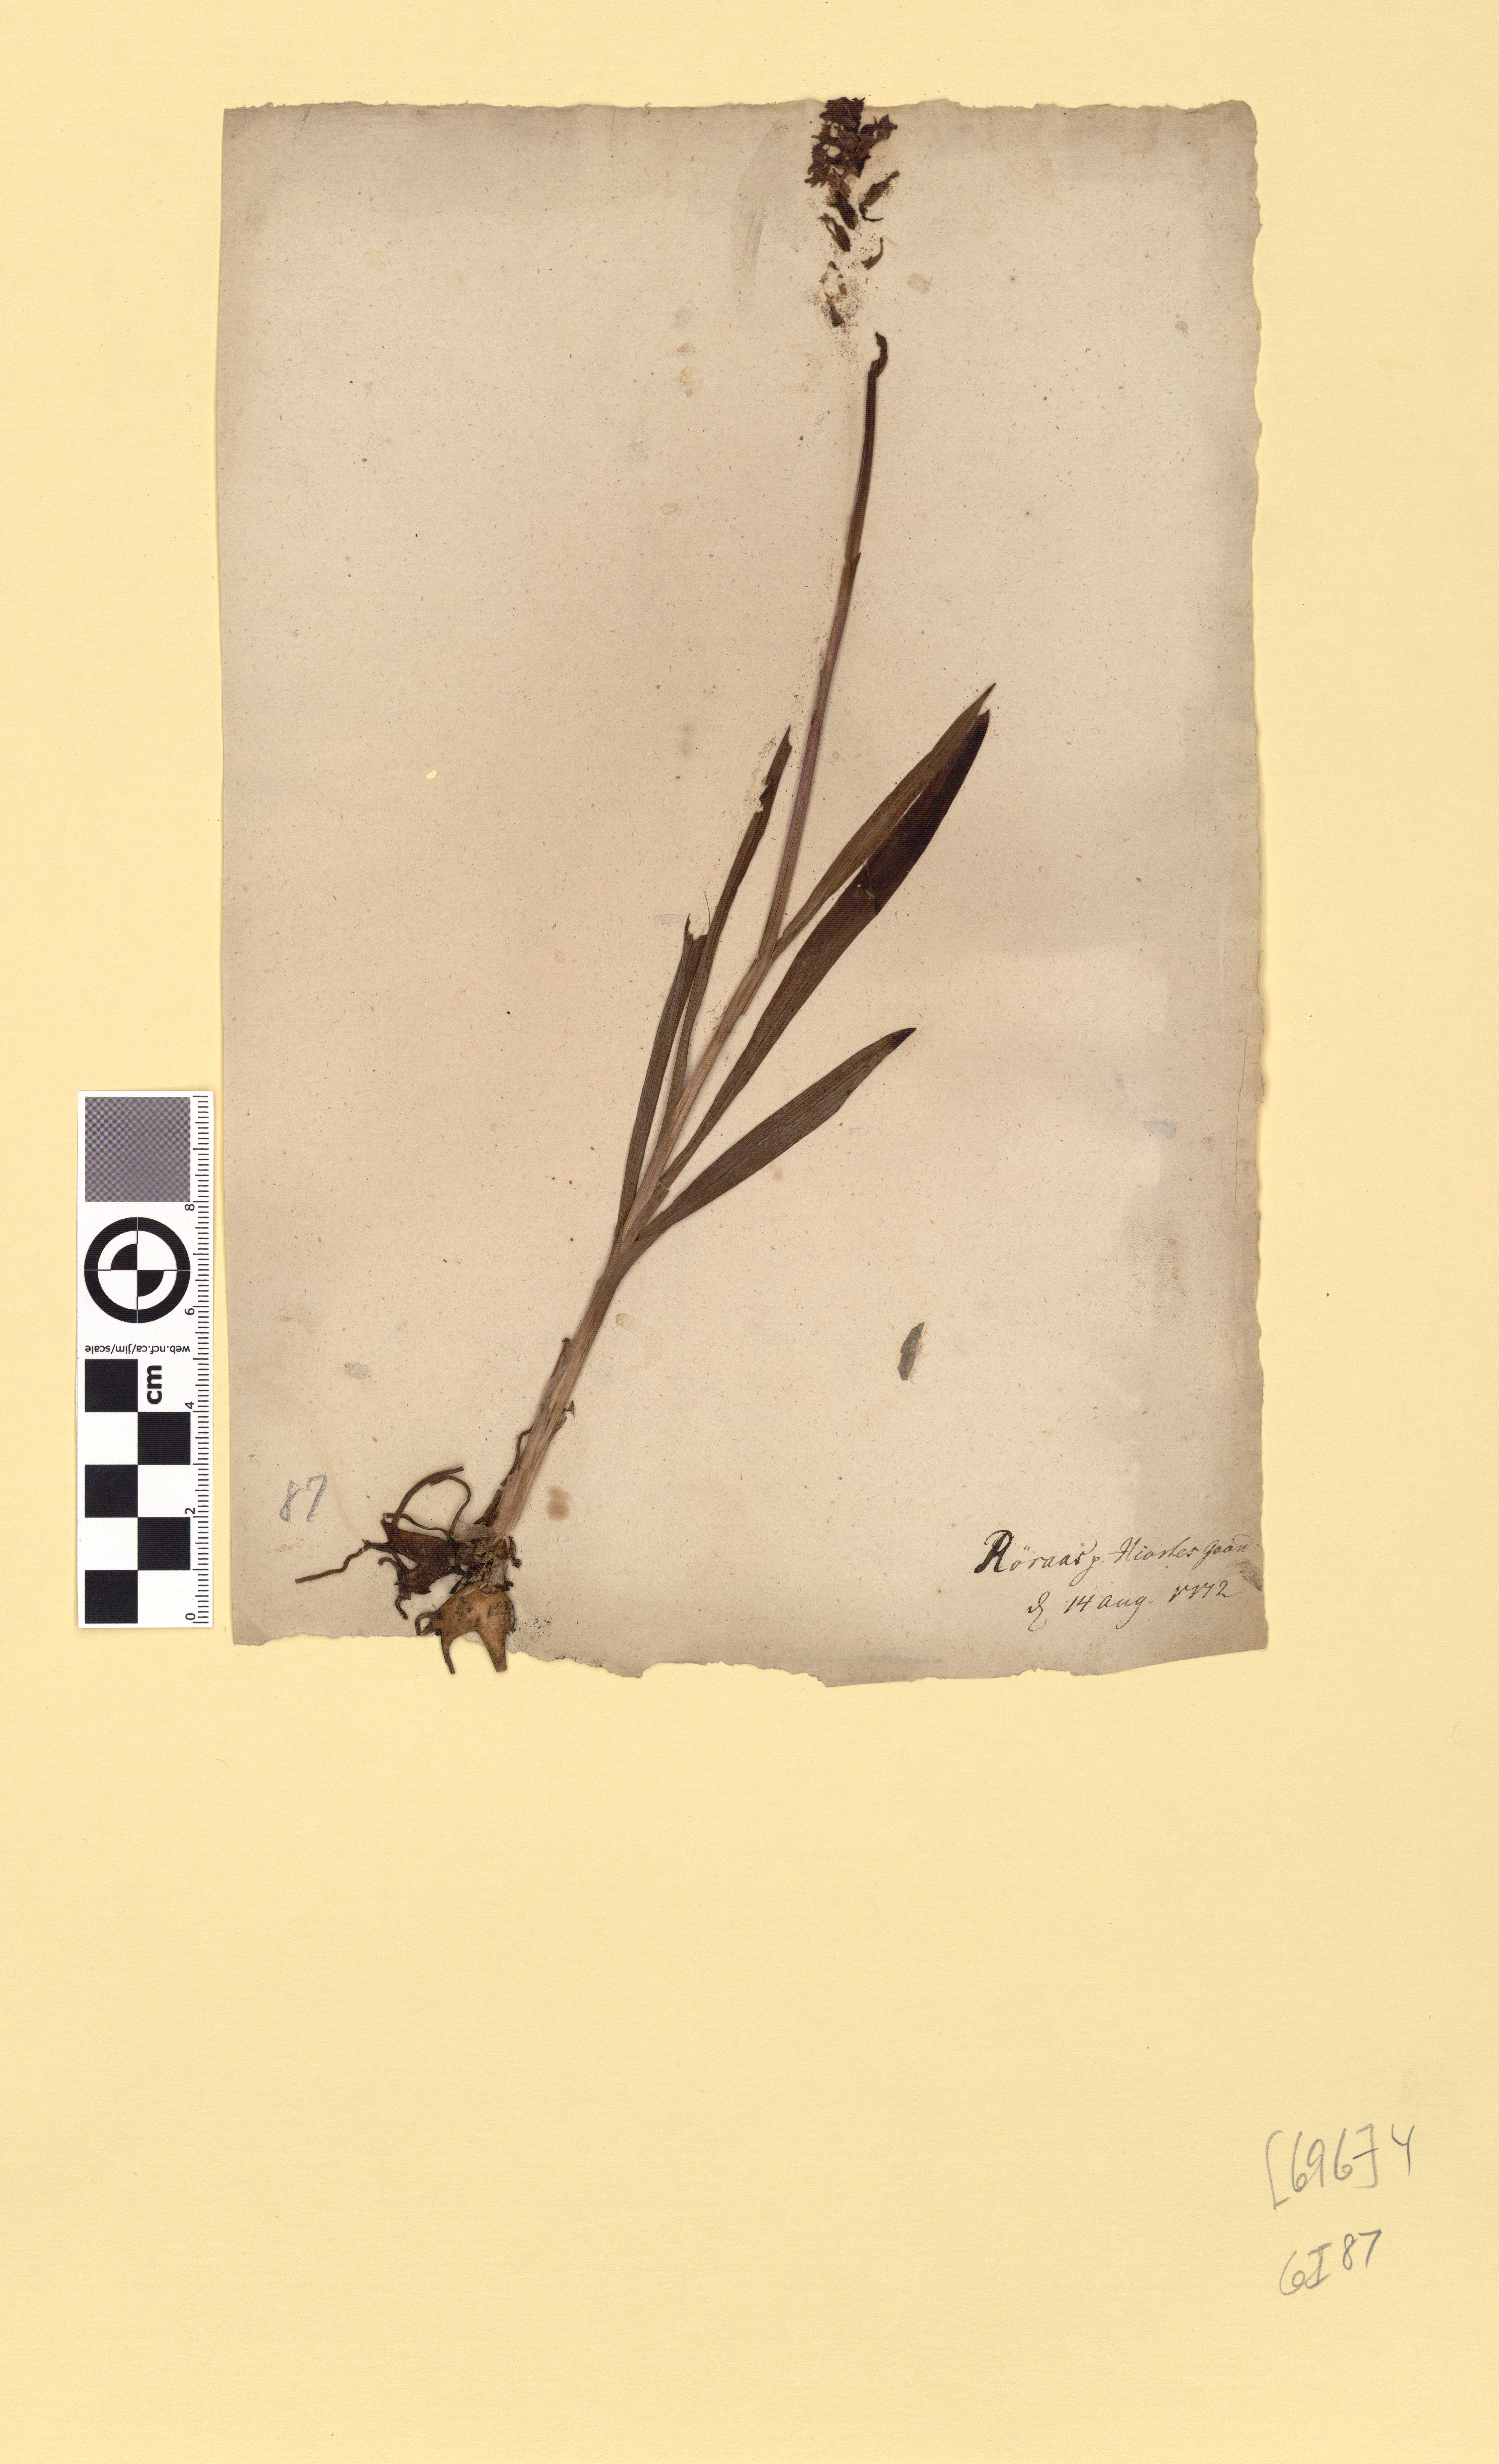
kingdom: Plantae
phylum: Tracheophyta
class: Liliopsida
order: Asparagales
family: Orchidaceae
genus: Gymnadenia
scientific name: Gymnadenia conopsea
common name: Fragrant orchid
